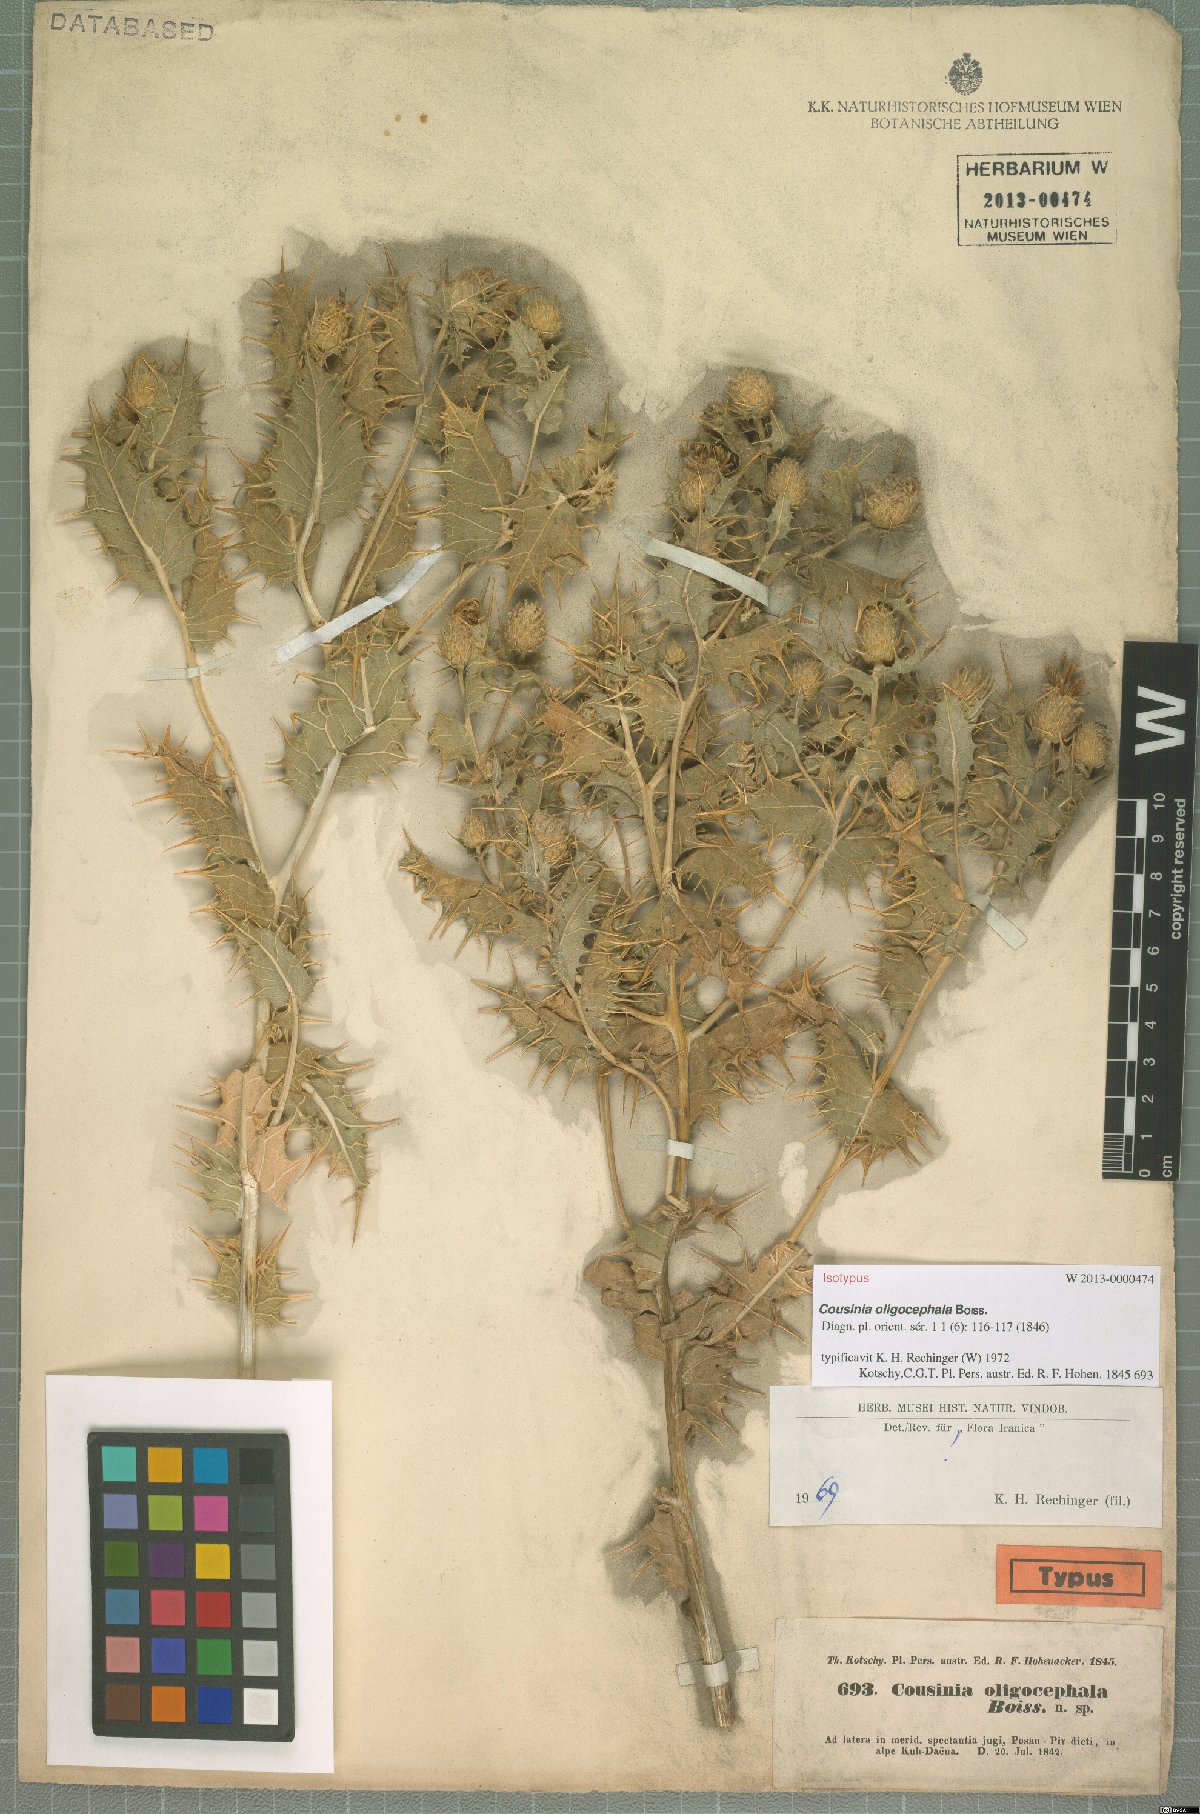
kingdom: Plantae
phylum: Tracheophyta
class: Magnoliopsida
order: Asterales
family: Asteraceae
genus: Cousinia
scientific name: Cousinia oligocephala
